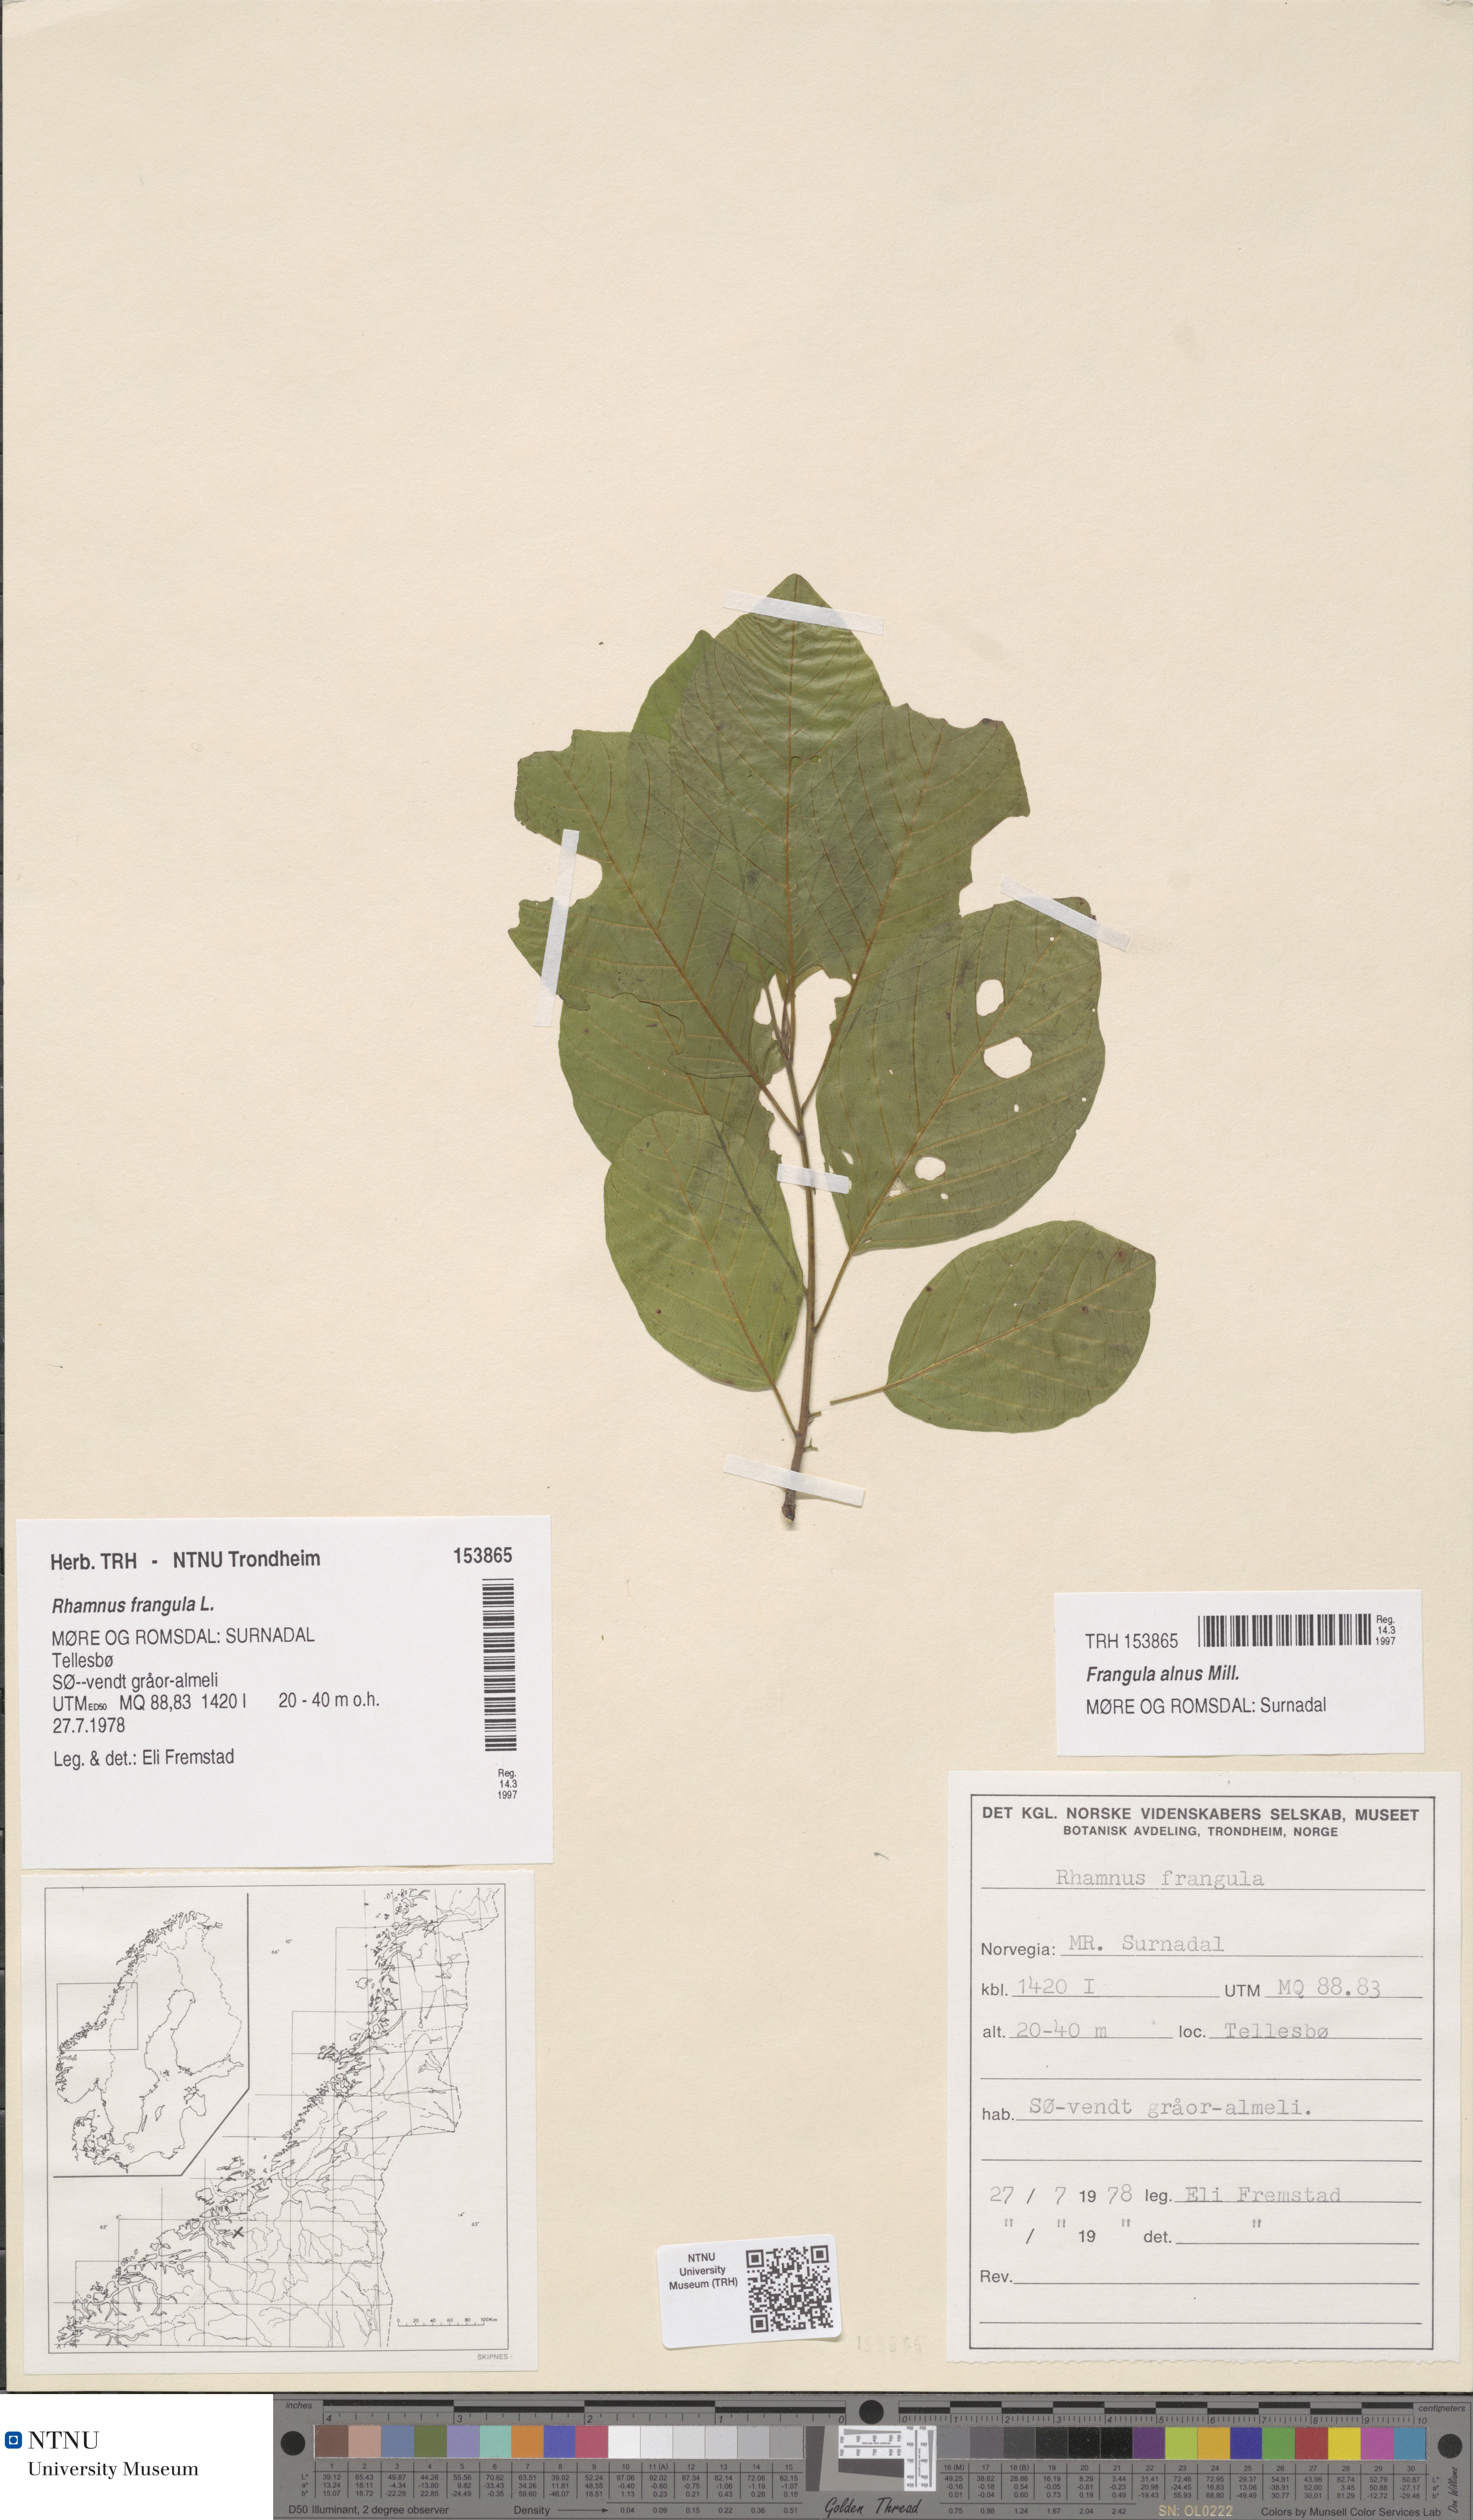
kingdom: Plantae
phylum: Tracheophyta
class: Magnoliopsida
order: Rosales
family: Rhamnaceae
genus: Frangula
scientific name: Frangula alnus
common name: Alder buckthorn
